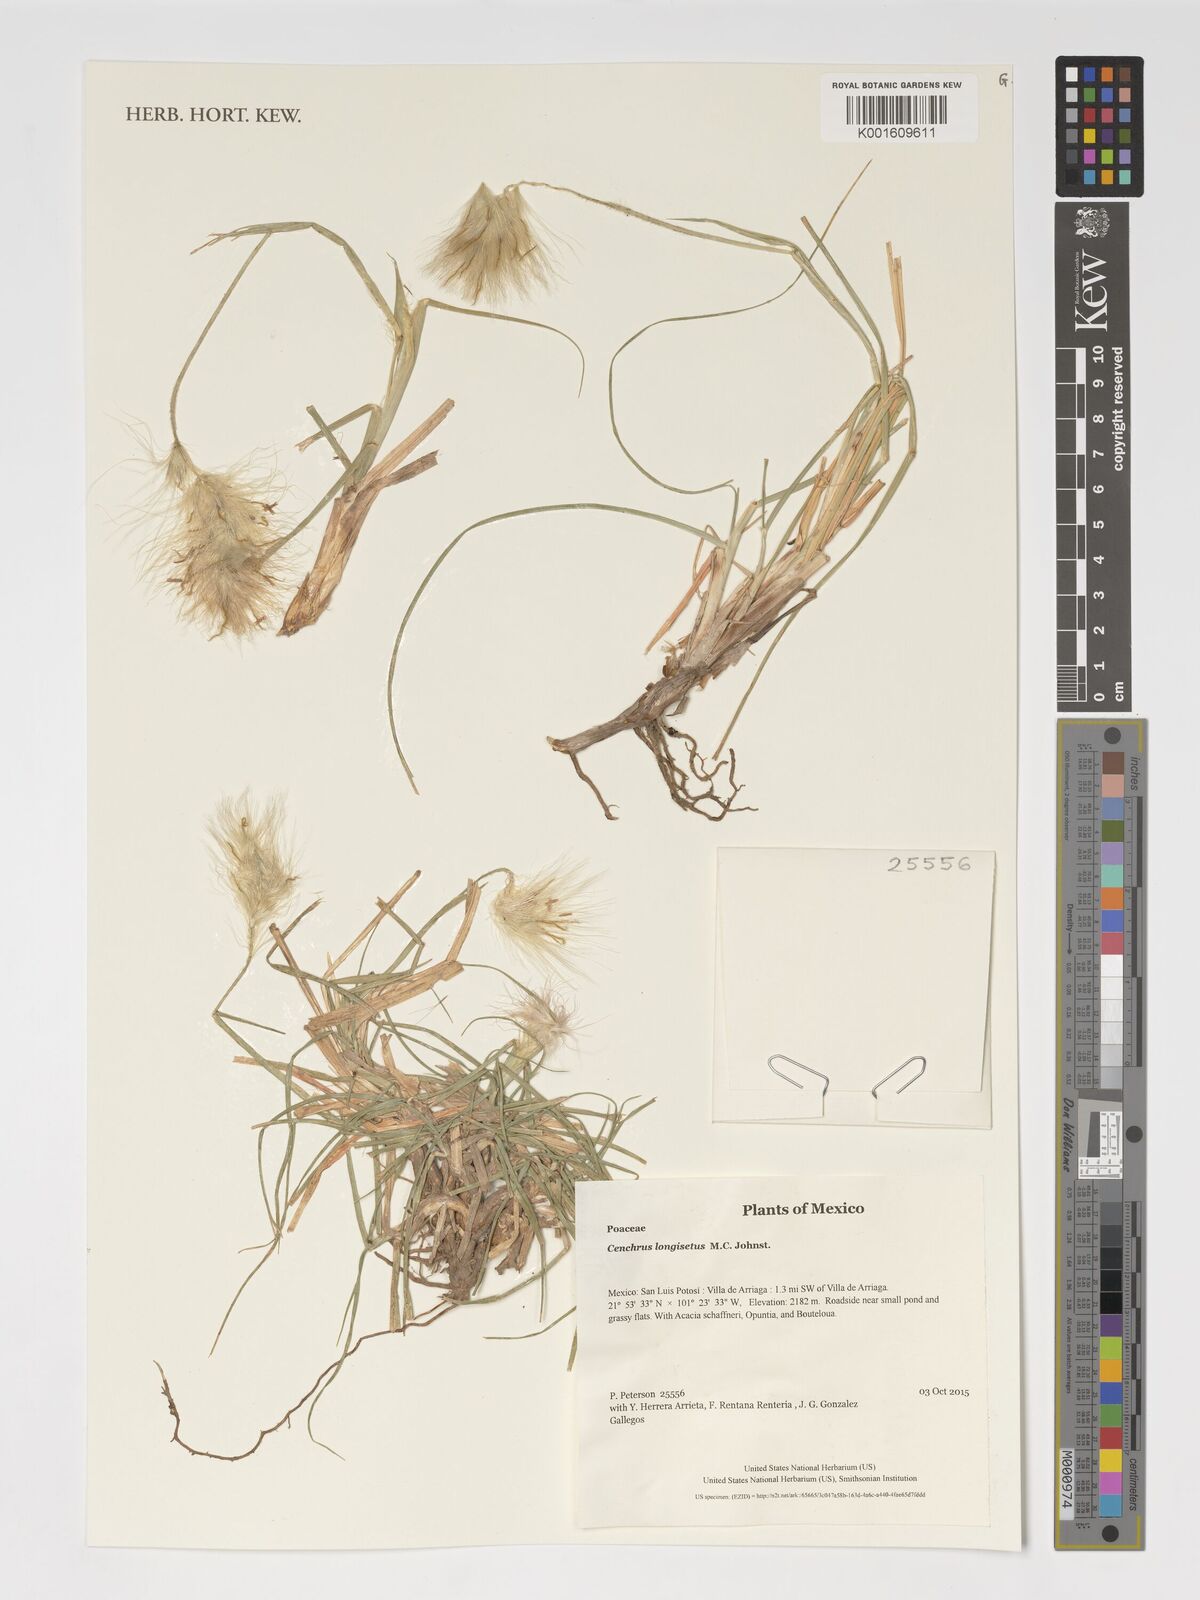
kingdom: Plantae
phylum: Tracheophyta
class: Liliopsida
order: Poales
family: Poaceae
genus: Cenchrus
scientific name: Cenchrus longisetus
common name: Feathertop
